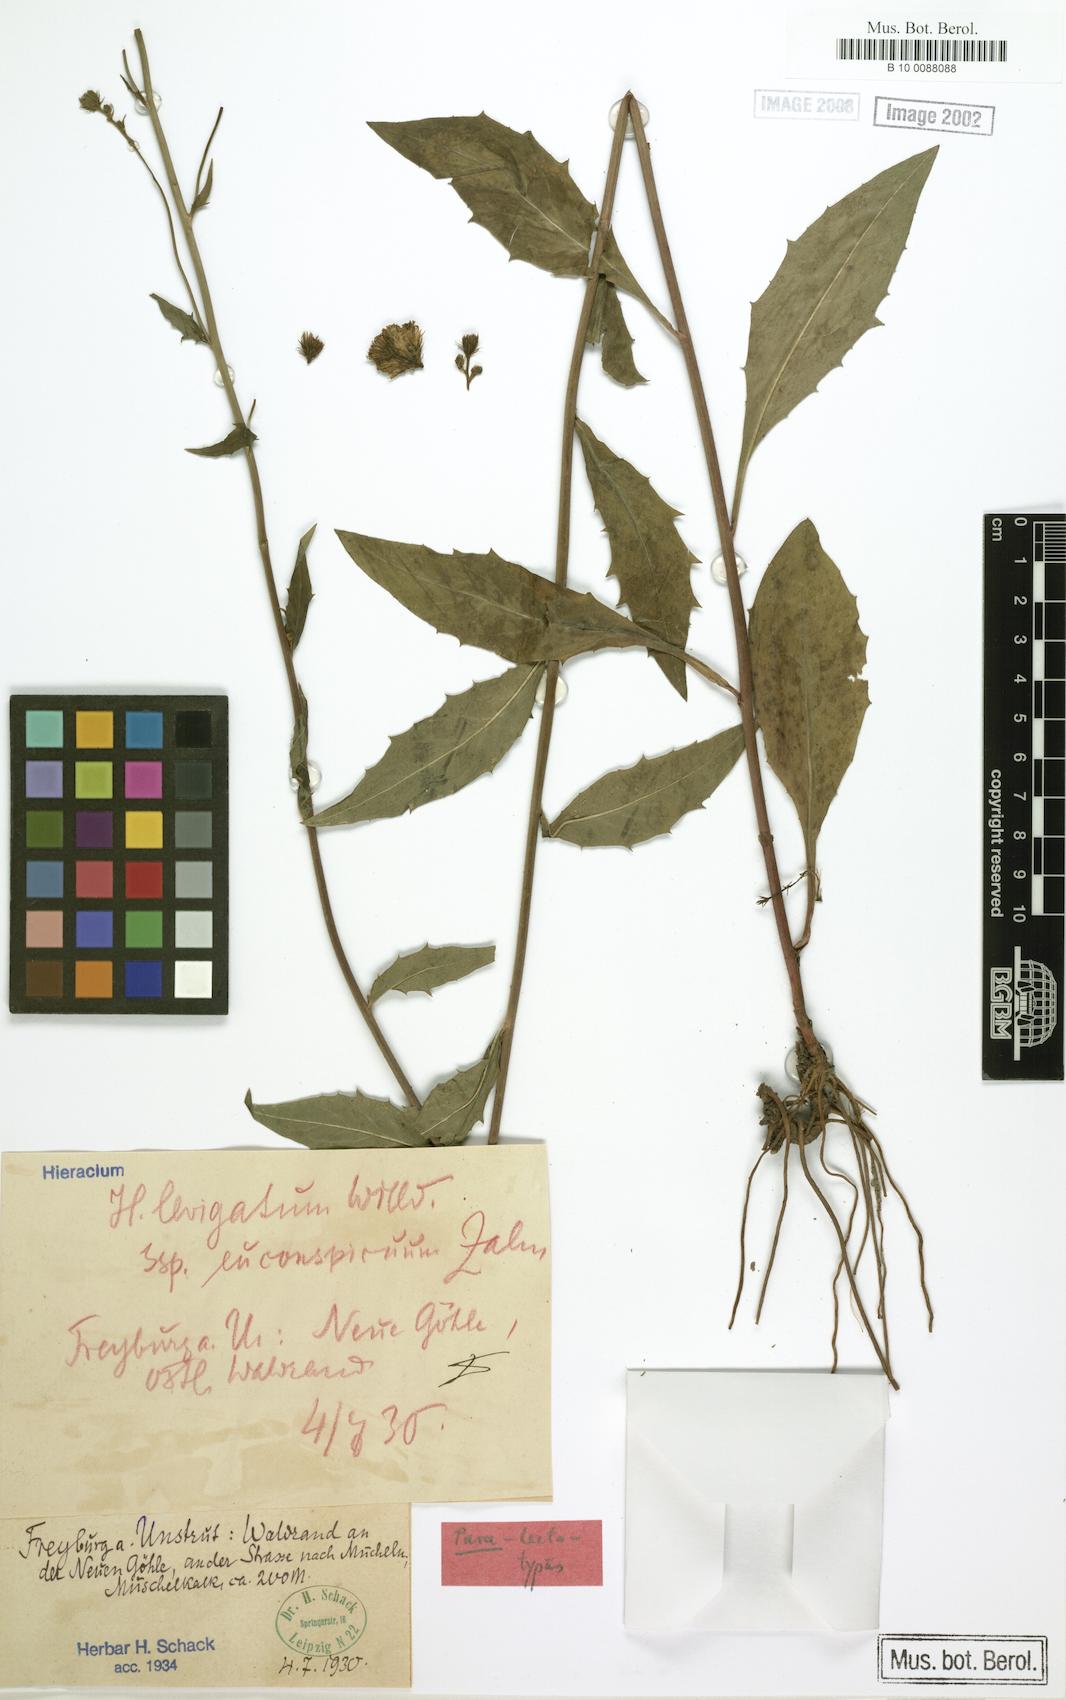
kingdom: Plantae
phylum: Tracheophyta
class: Magnoliopsida
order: Asterales
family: Asteraceae
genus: Hieracium
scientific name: Hieracium laevigatum
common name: Smooth hawkweed
